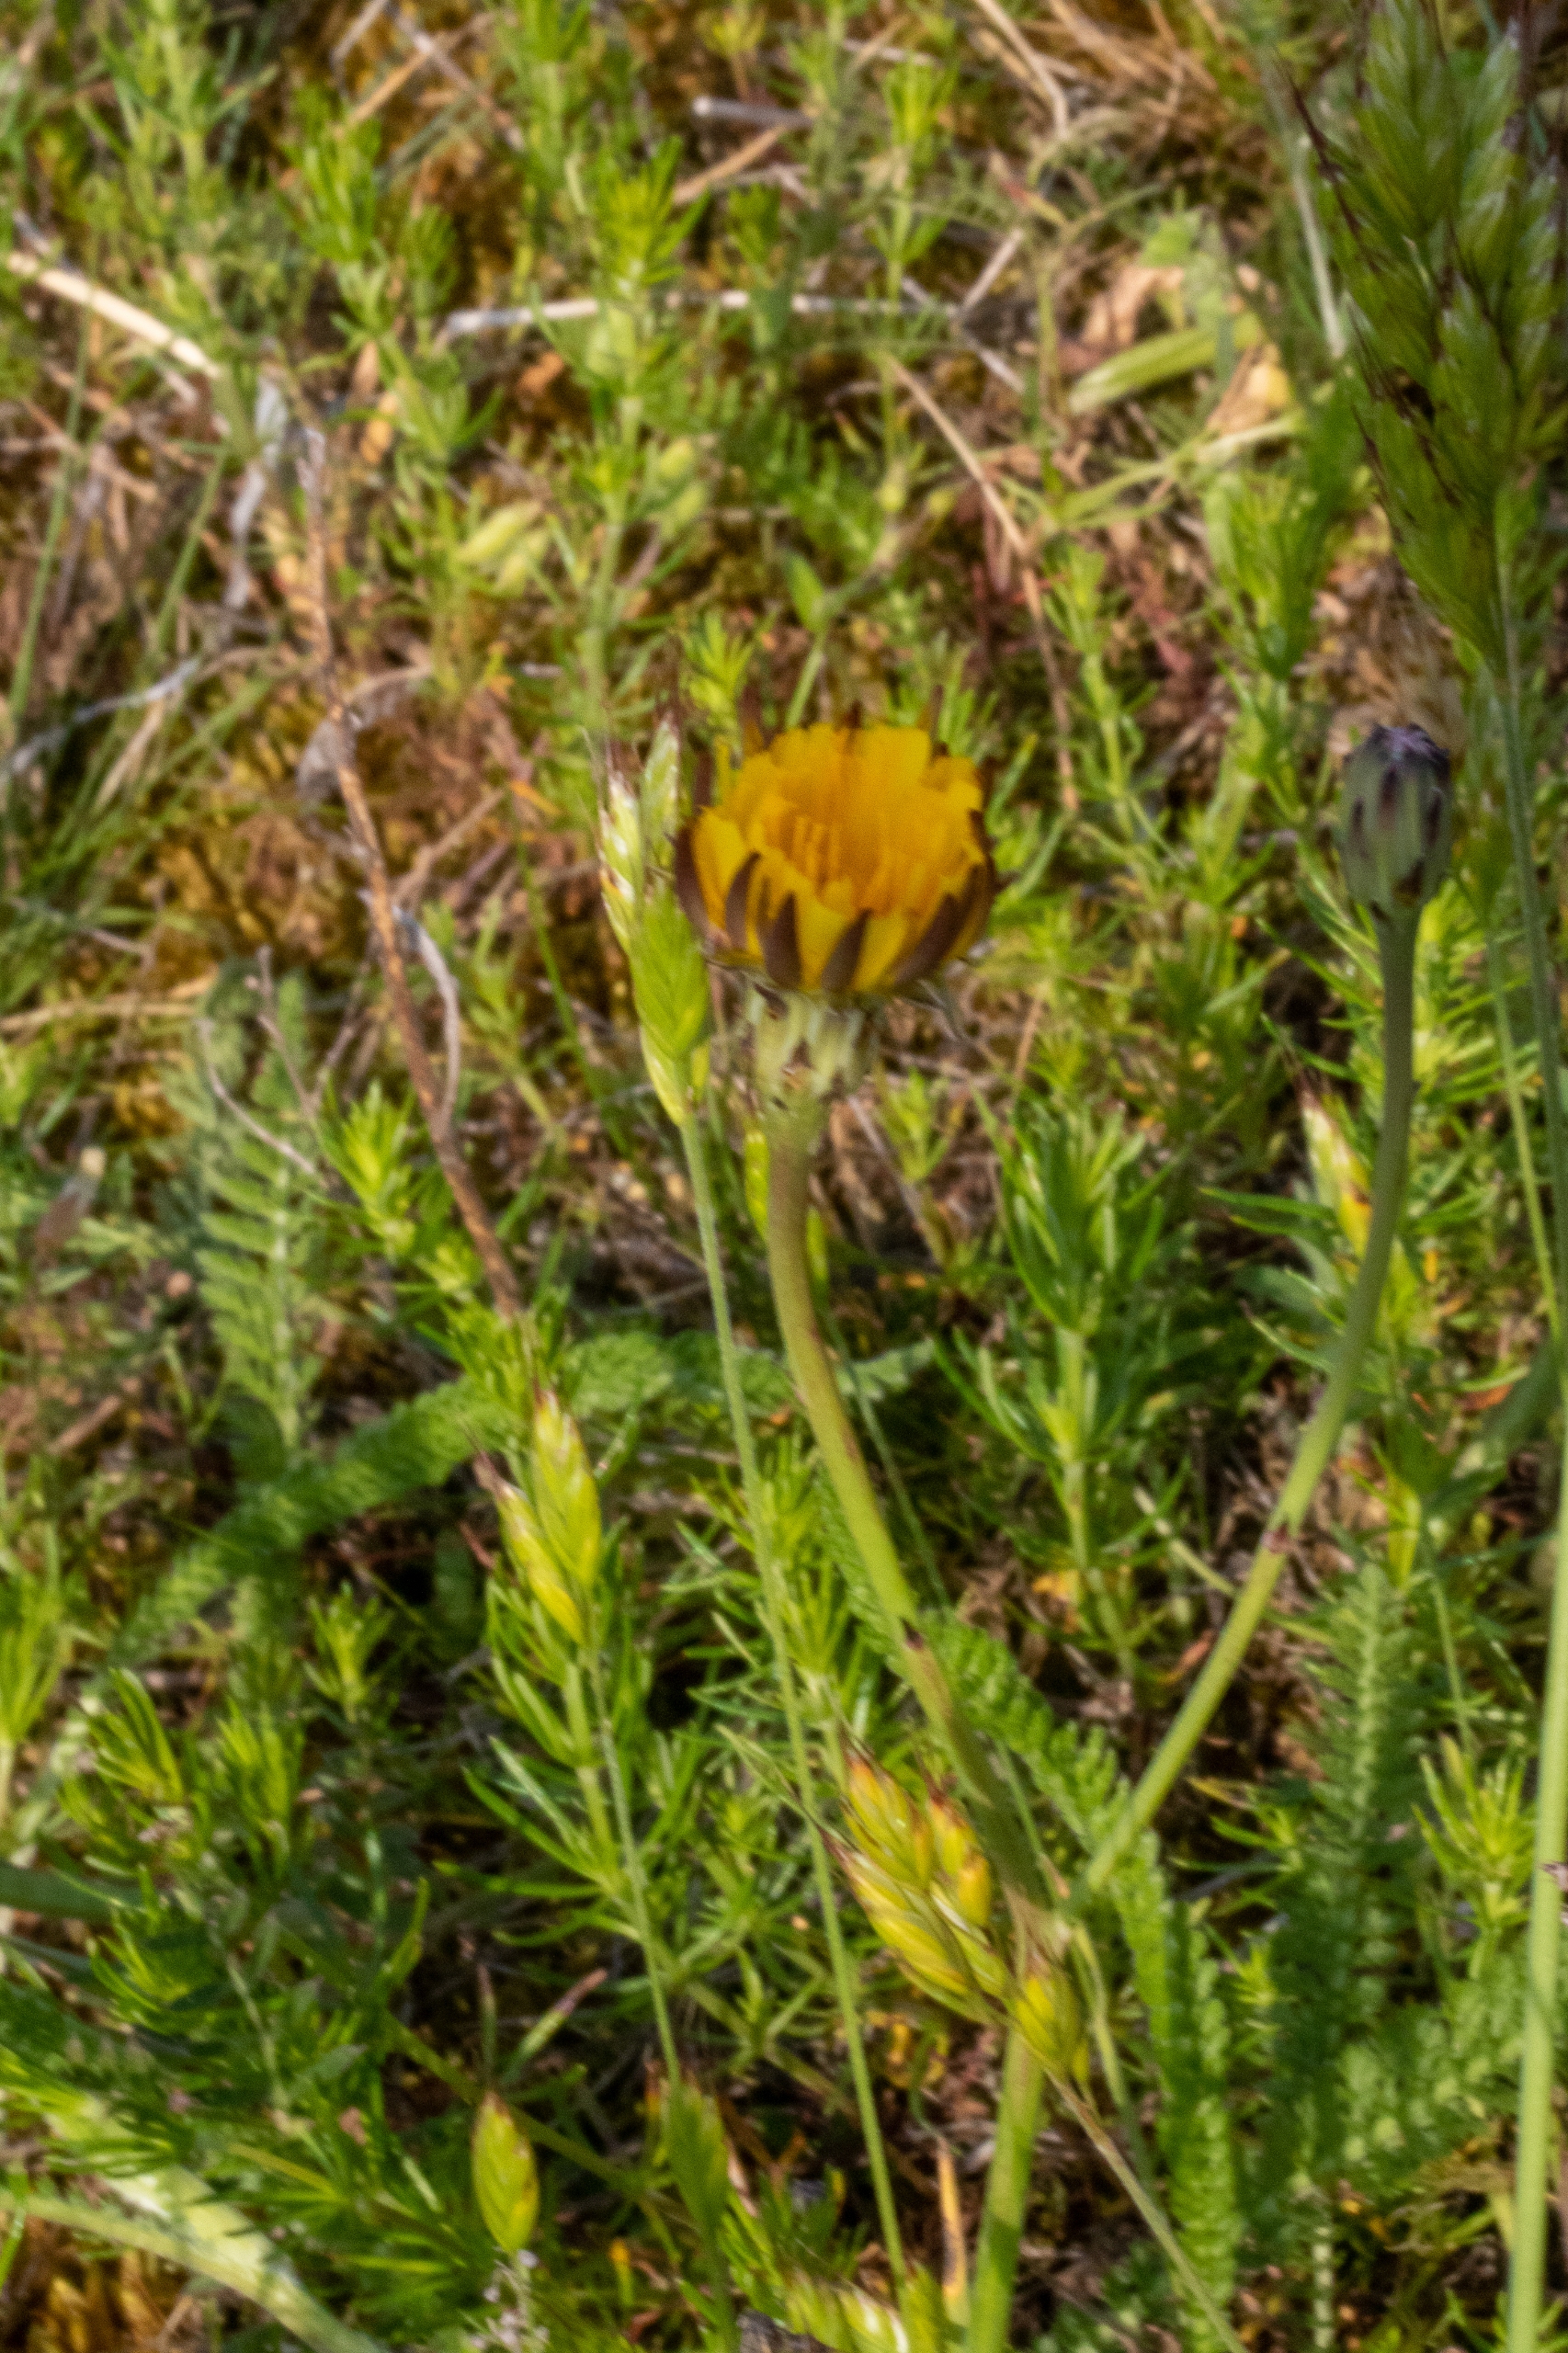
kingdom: Plantae
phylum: Tracheophyta
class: Magnoliopsida
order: Asterales
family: Asteraceae
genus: Hypochaeris
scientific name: Hypochaeris radicata
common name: Almindelig kongepen
